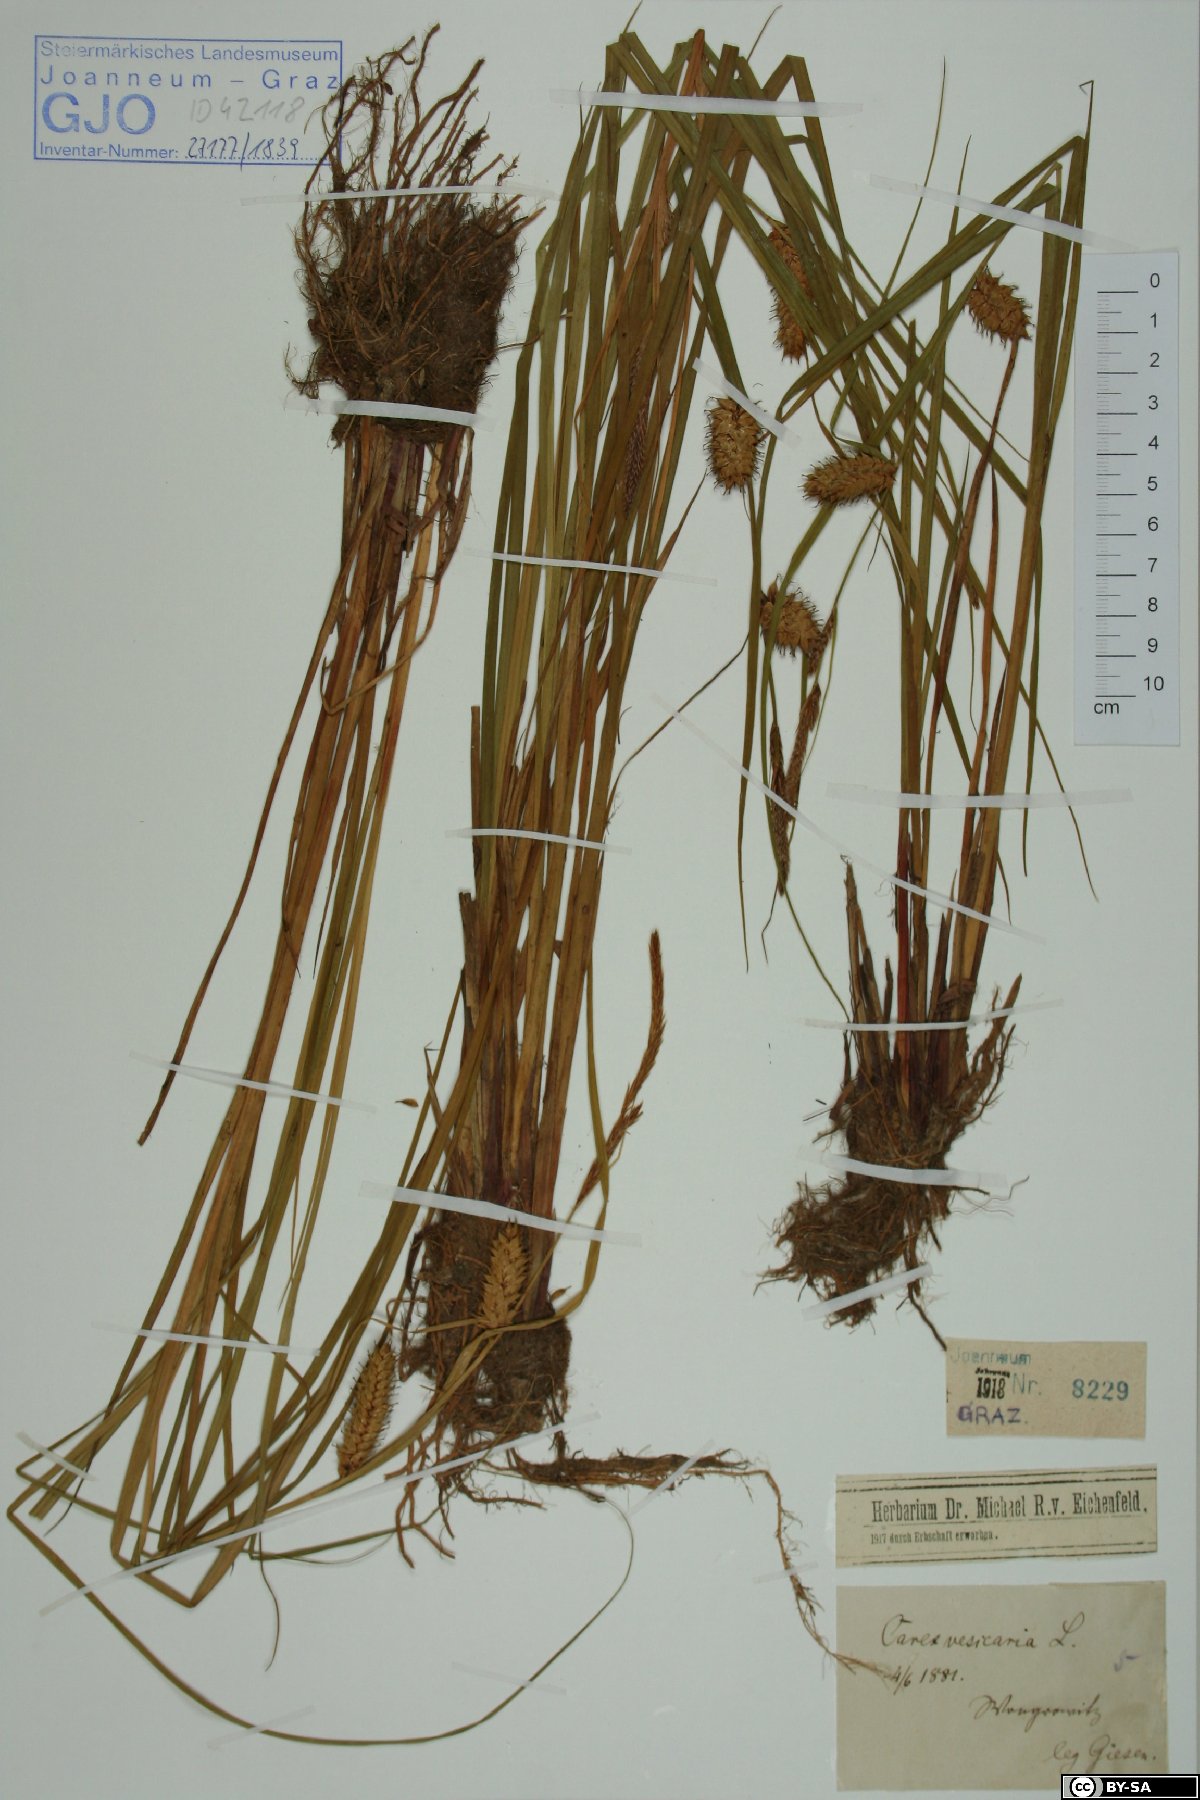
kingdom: Plantae
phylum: Tracheophyta
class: Liliopsida
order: Poales
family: Cyperaceae
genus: Carex
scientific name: Carex vesicaria
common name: Bladder-sedge
